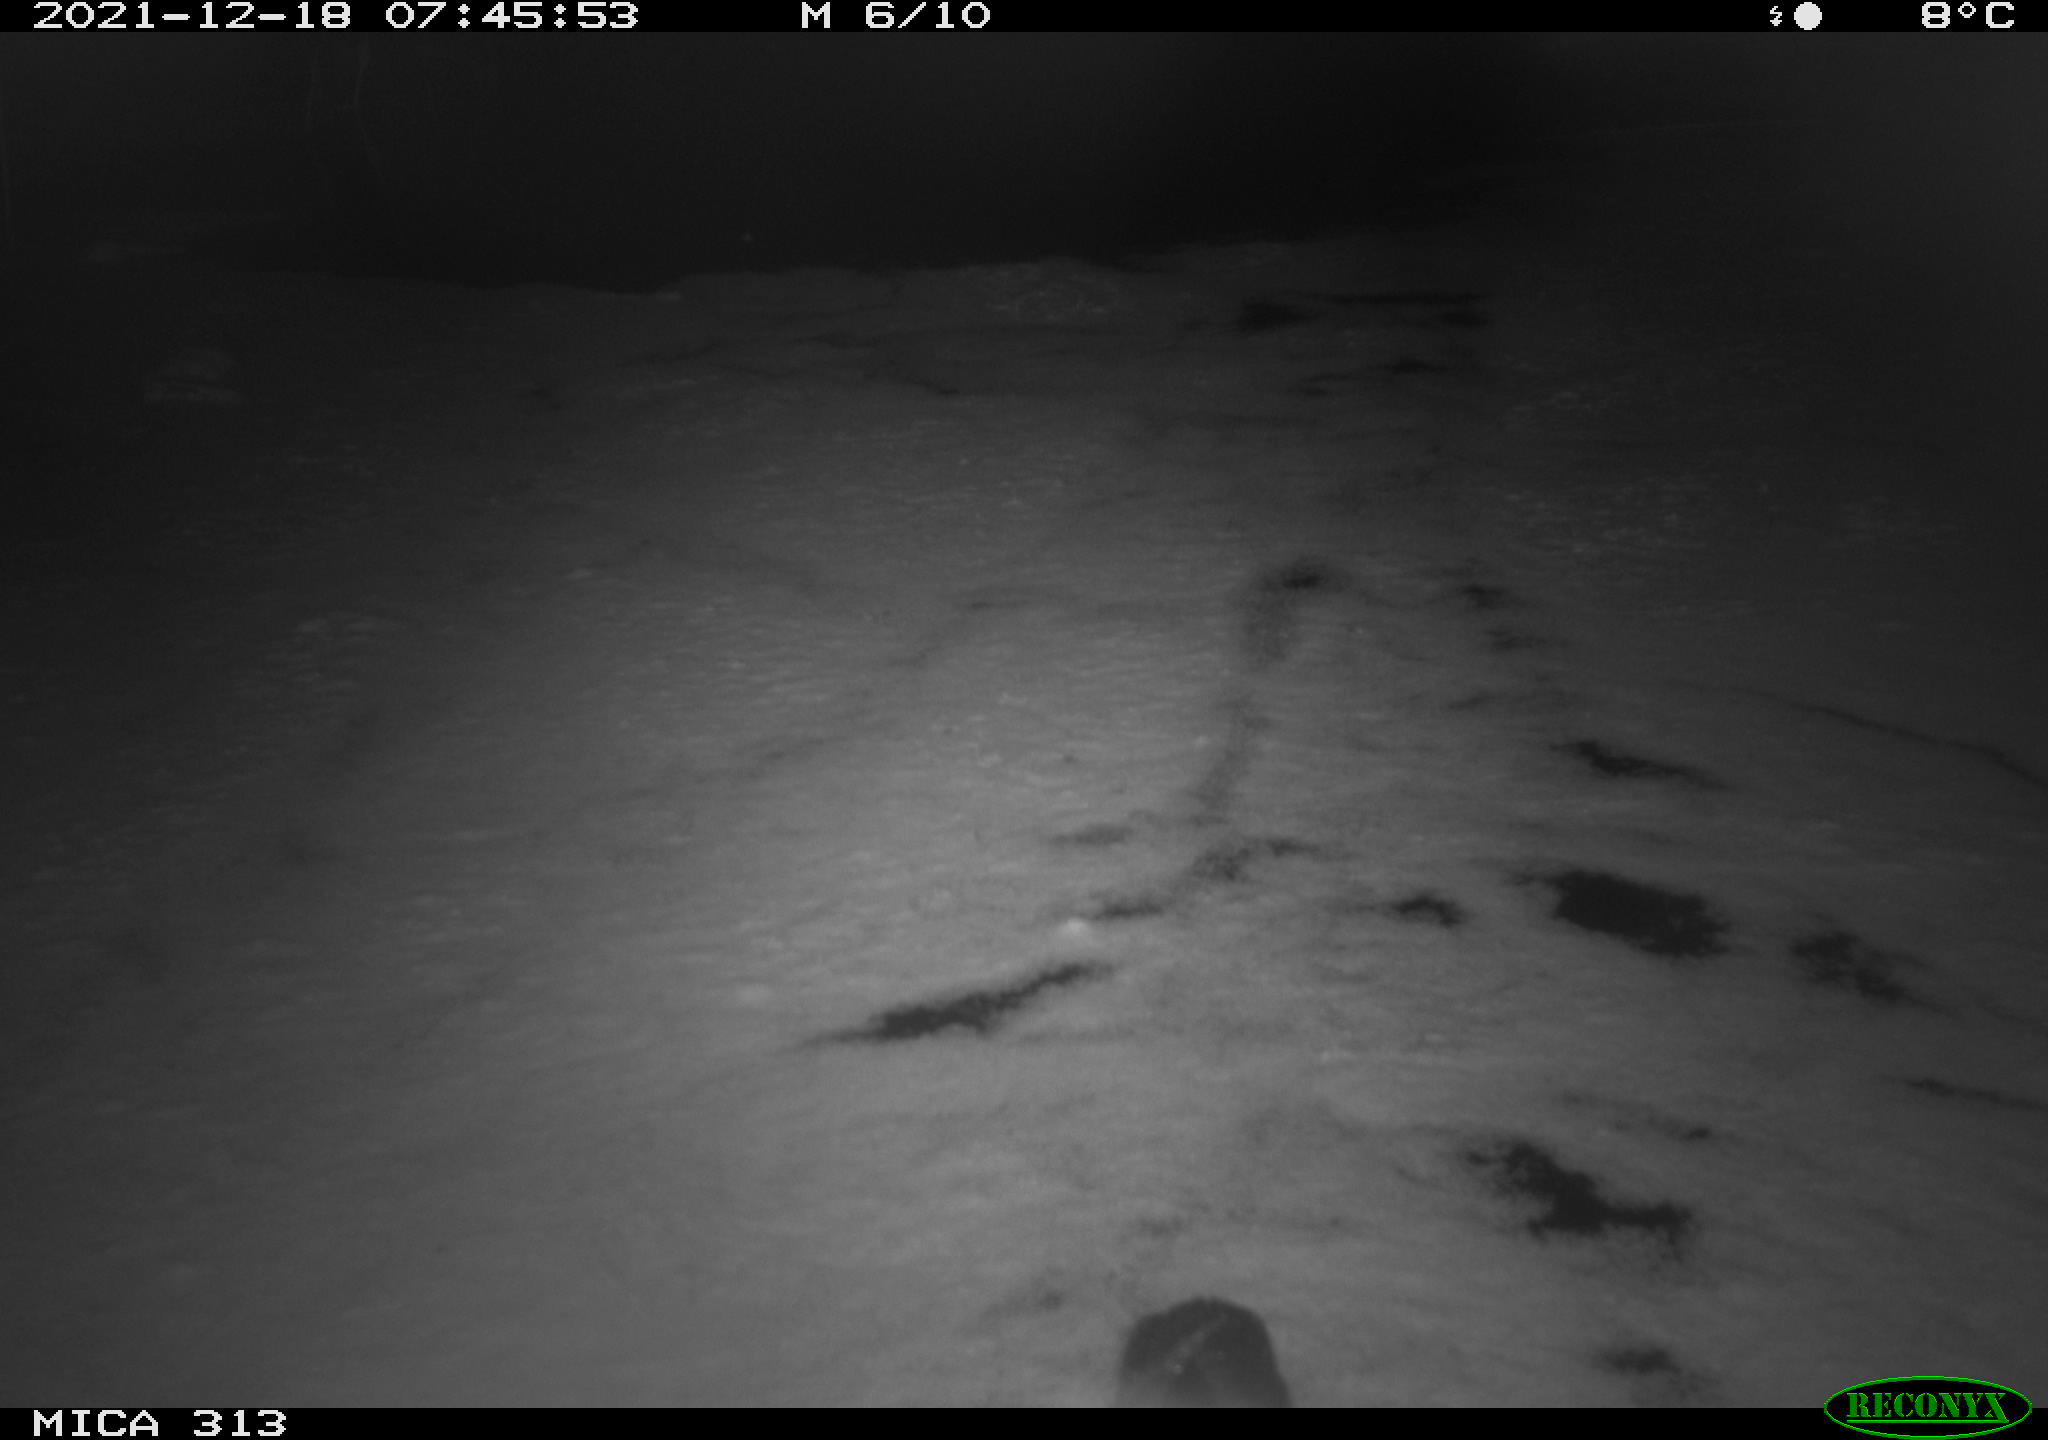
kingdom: Animalia
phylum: Chordata
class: Aves
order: Gruiformes
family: Rallidae
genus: Fulica
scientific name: Fulica atra
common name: Eurasian coot
